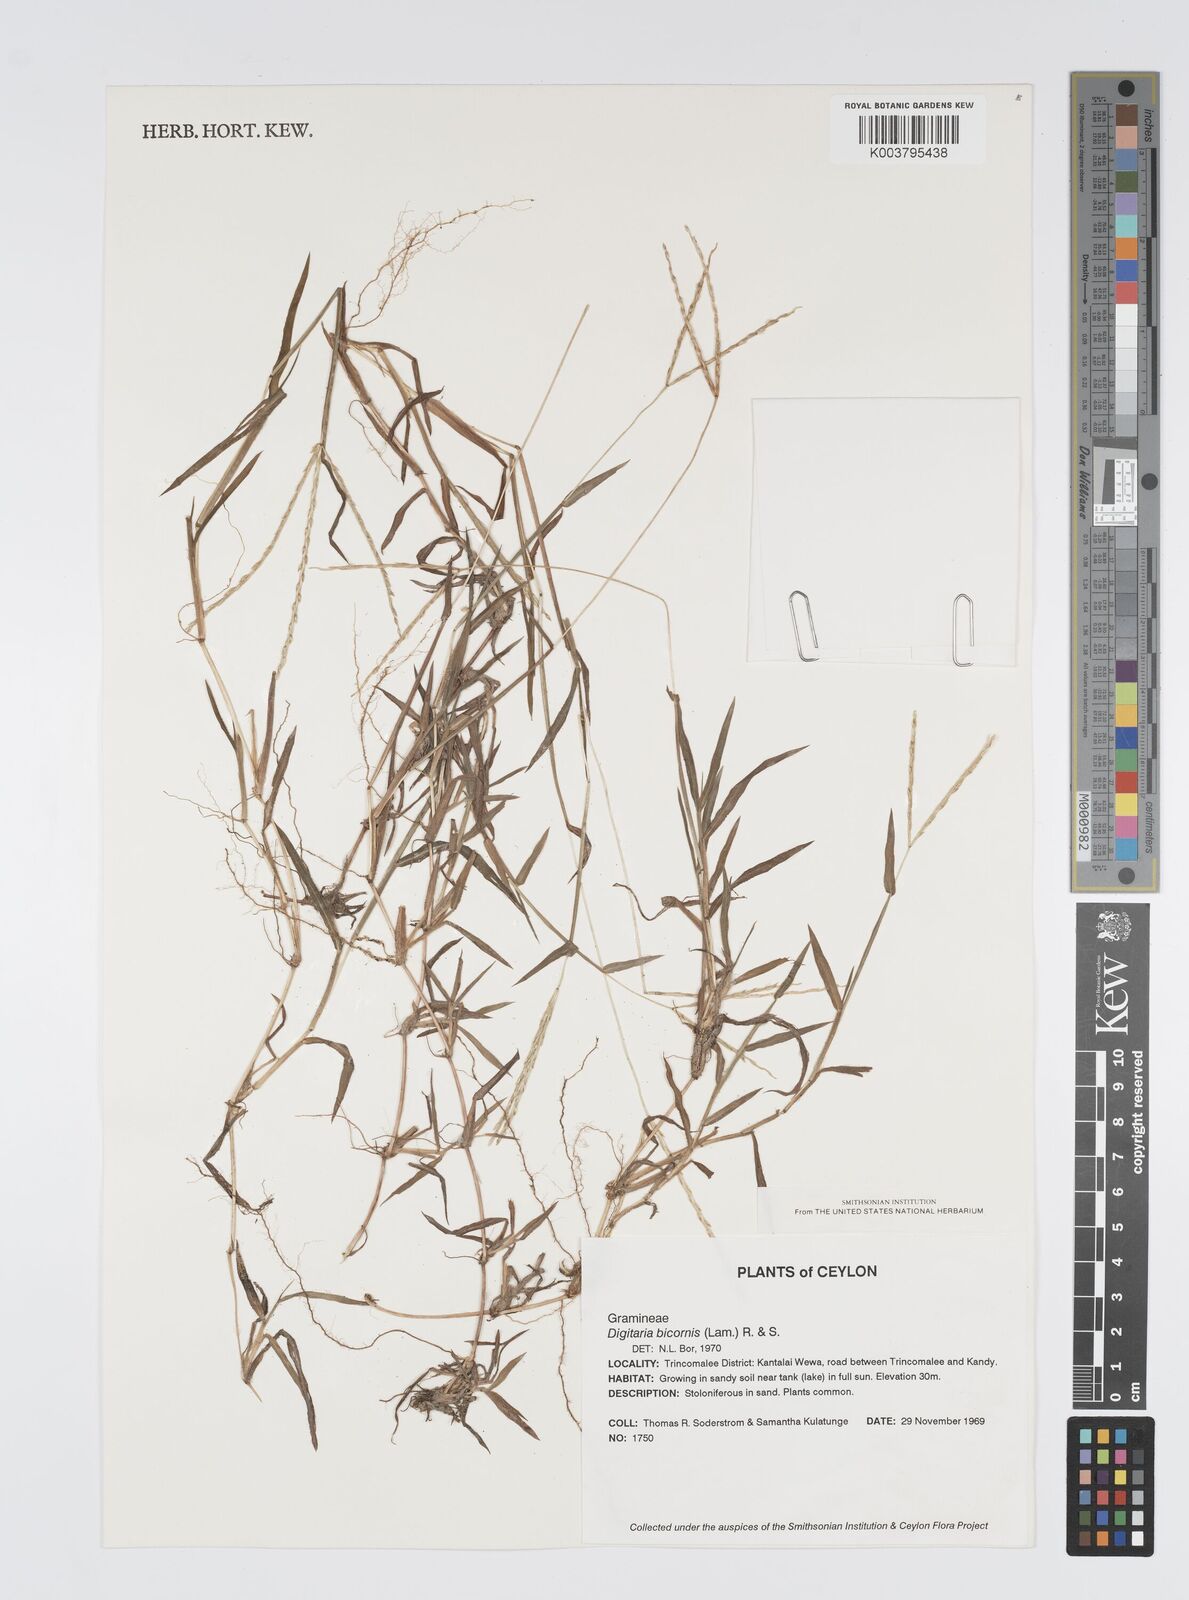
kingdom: Plantae
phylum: Tracheophyta
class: Liliopsida
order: Poales
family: Poaceae
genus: Digitaria
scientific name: Digitaria bicornis
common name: Asian crabgrass
